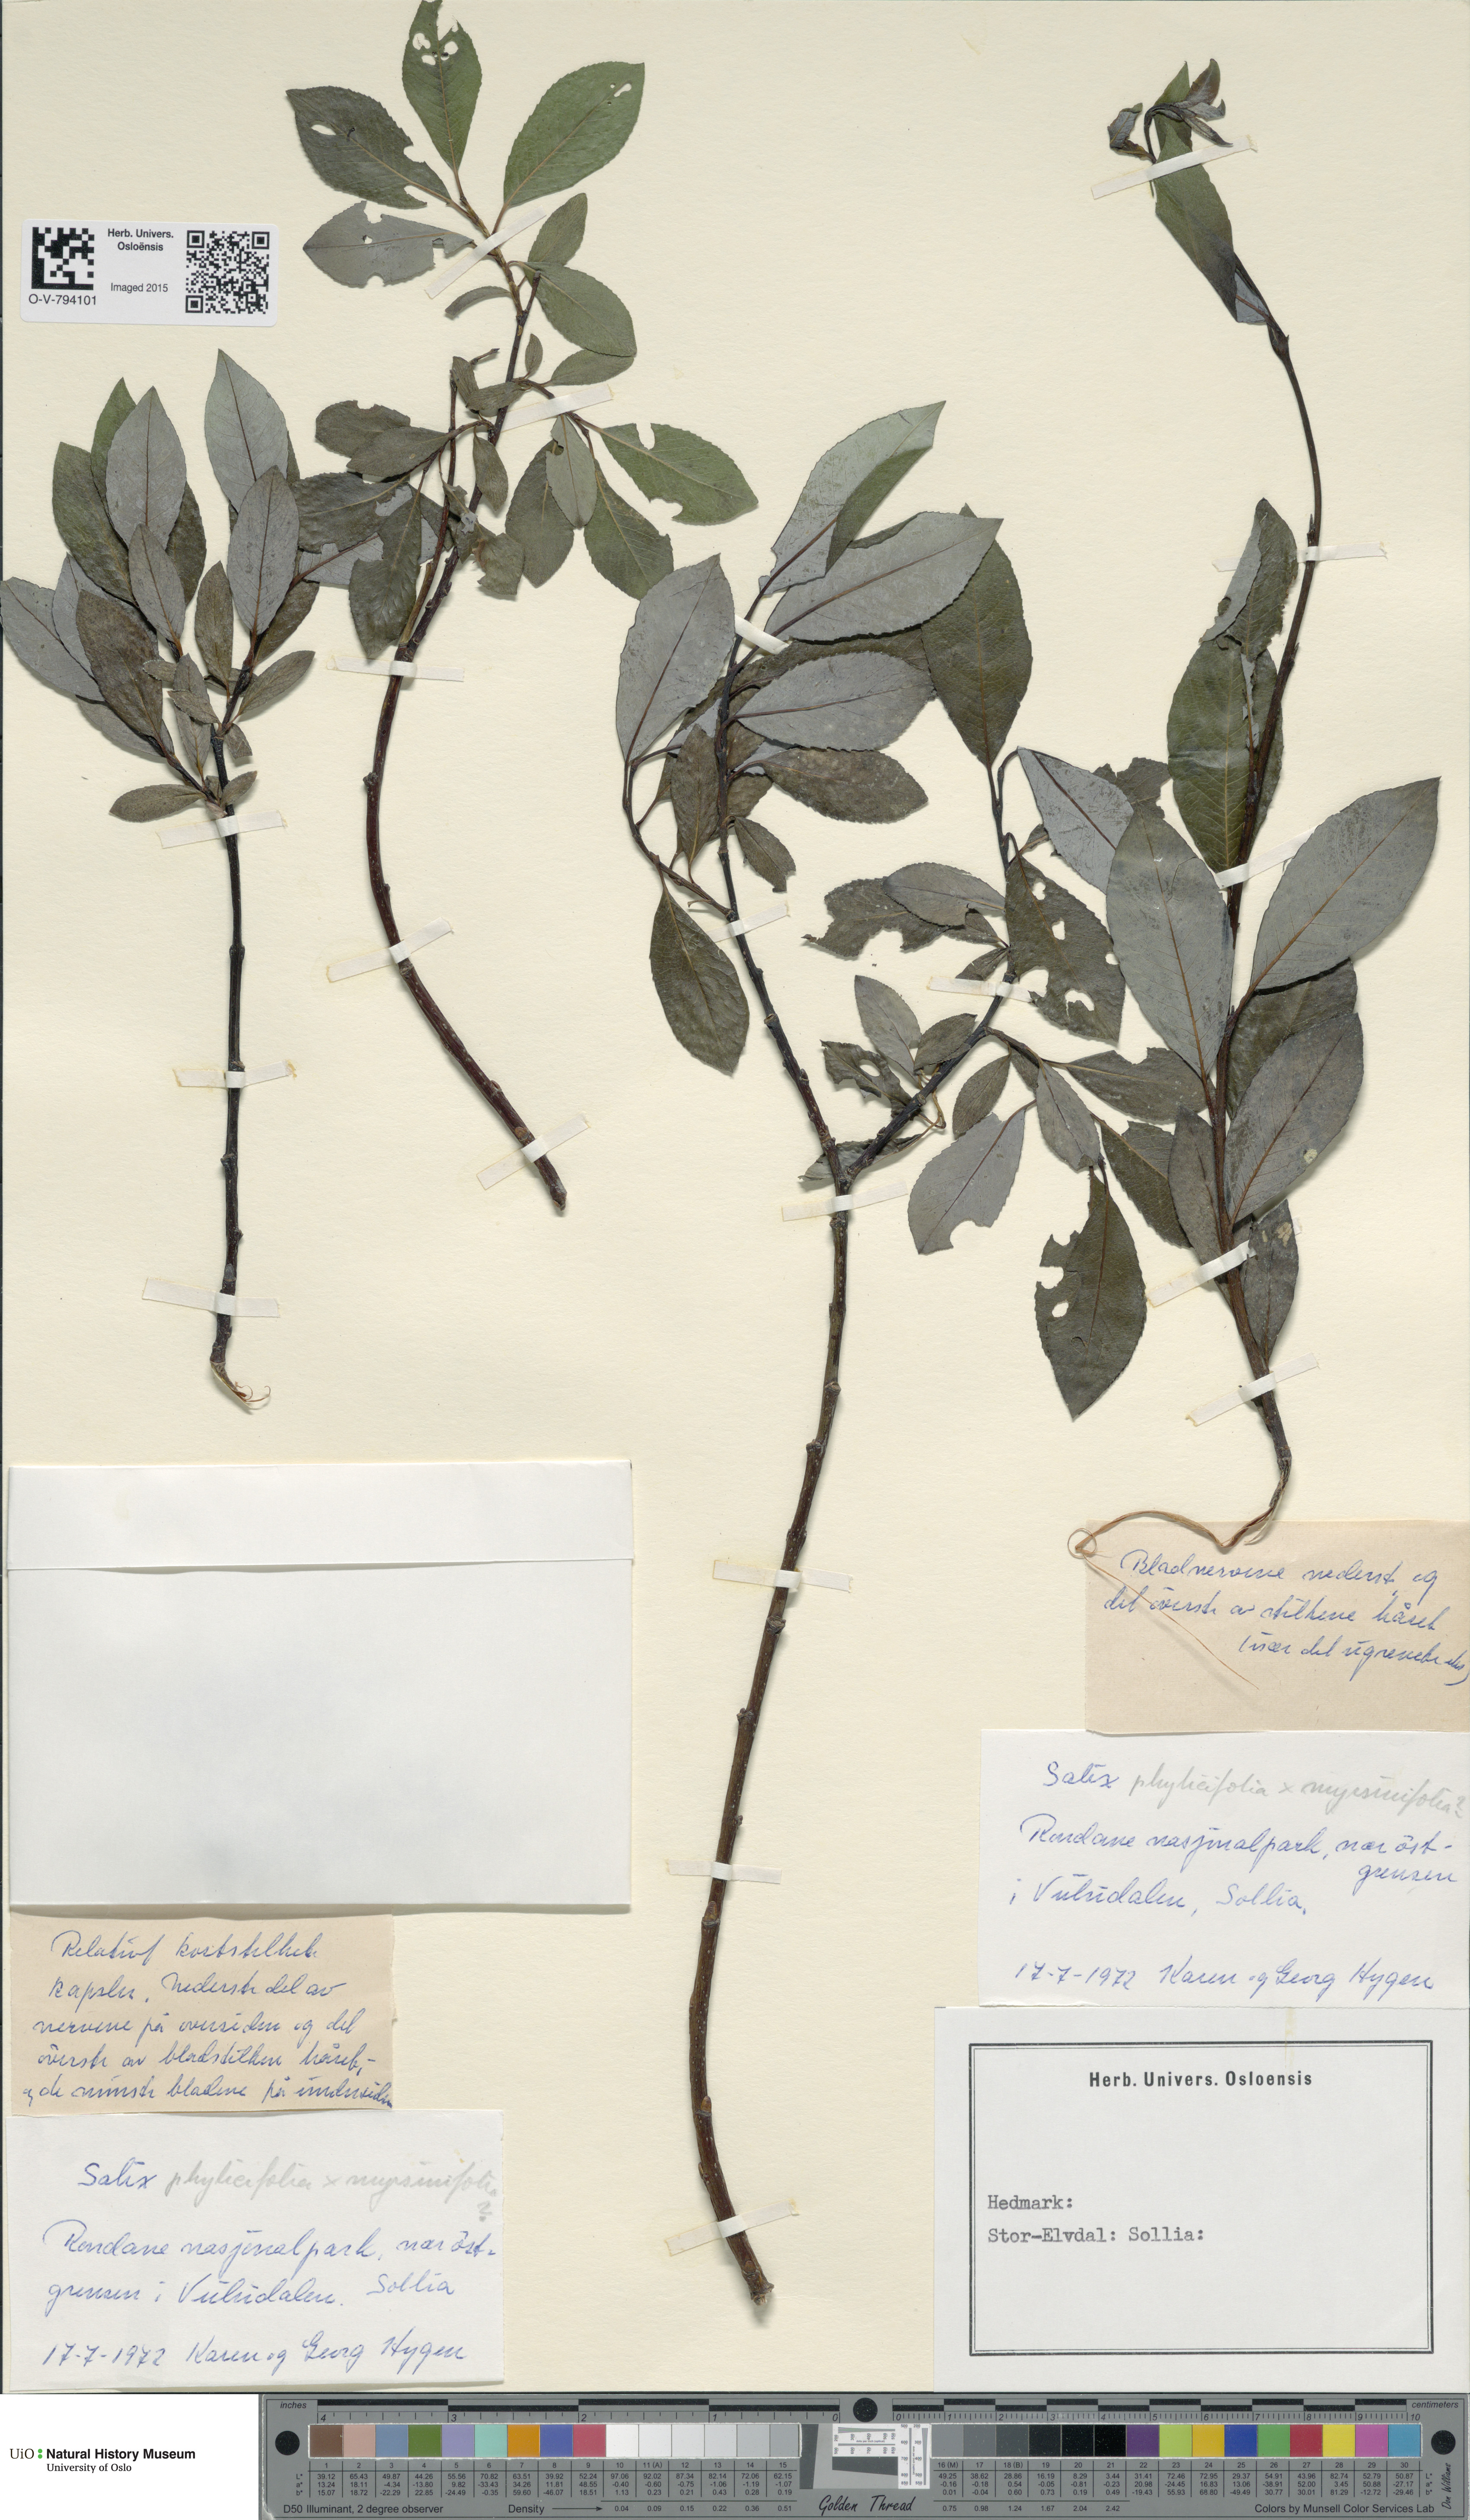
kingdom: Plantae
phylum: Tracheophyta
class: Magnoliopsida
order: Malpighiales
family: Salicaceae
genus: Salix
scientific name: Salix
